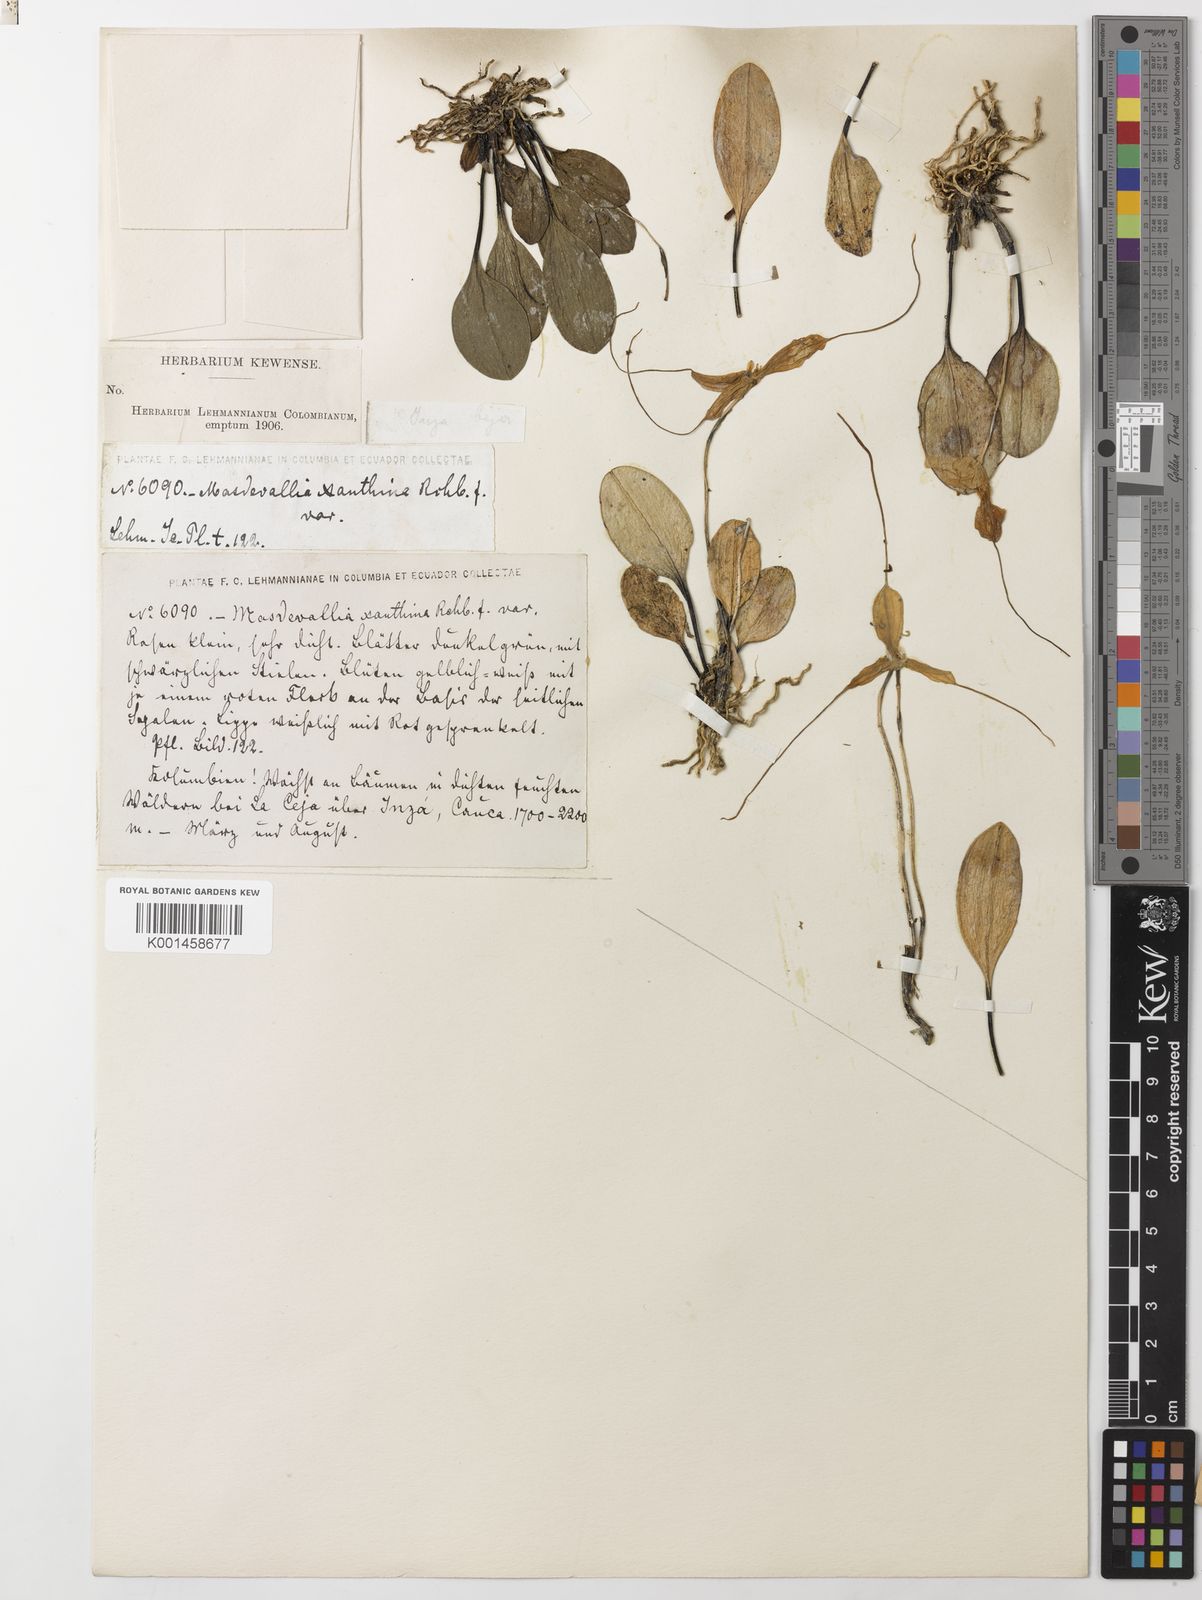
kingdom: Plantae
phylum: Tracheophyta
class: Liliopsida
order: Asparagales
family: Orchidaceae
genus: Masdevallia
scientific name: Masdevallia xanthina
